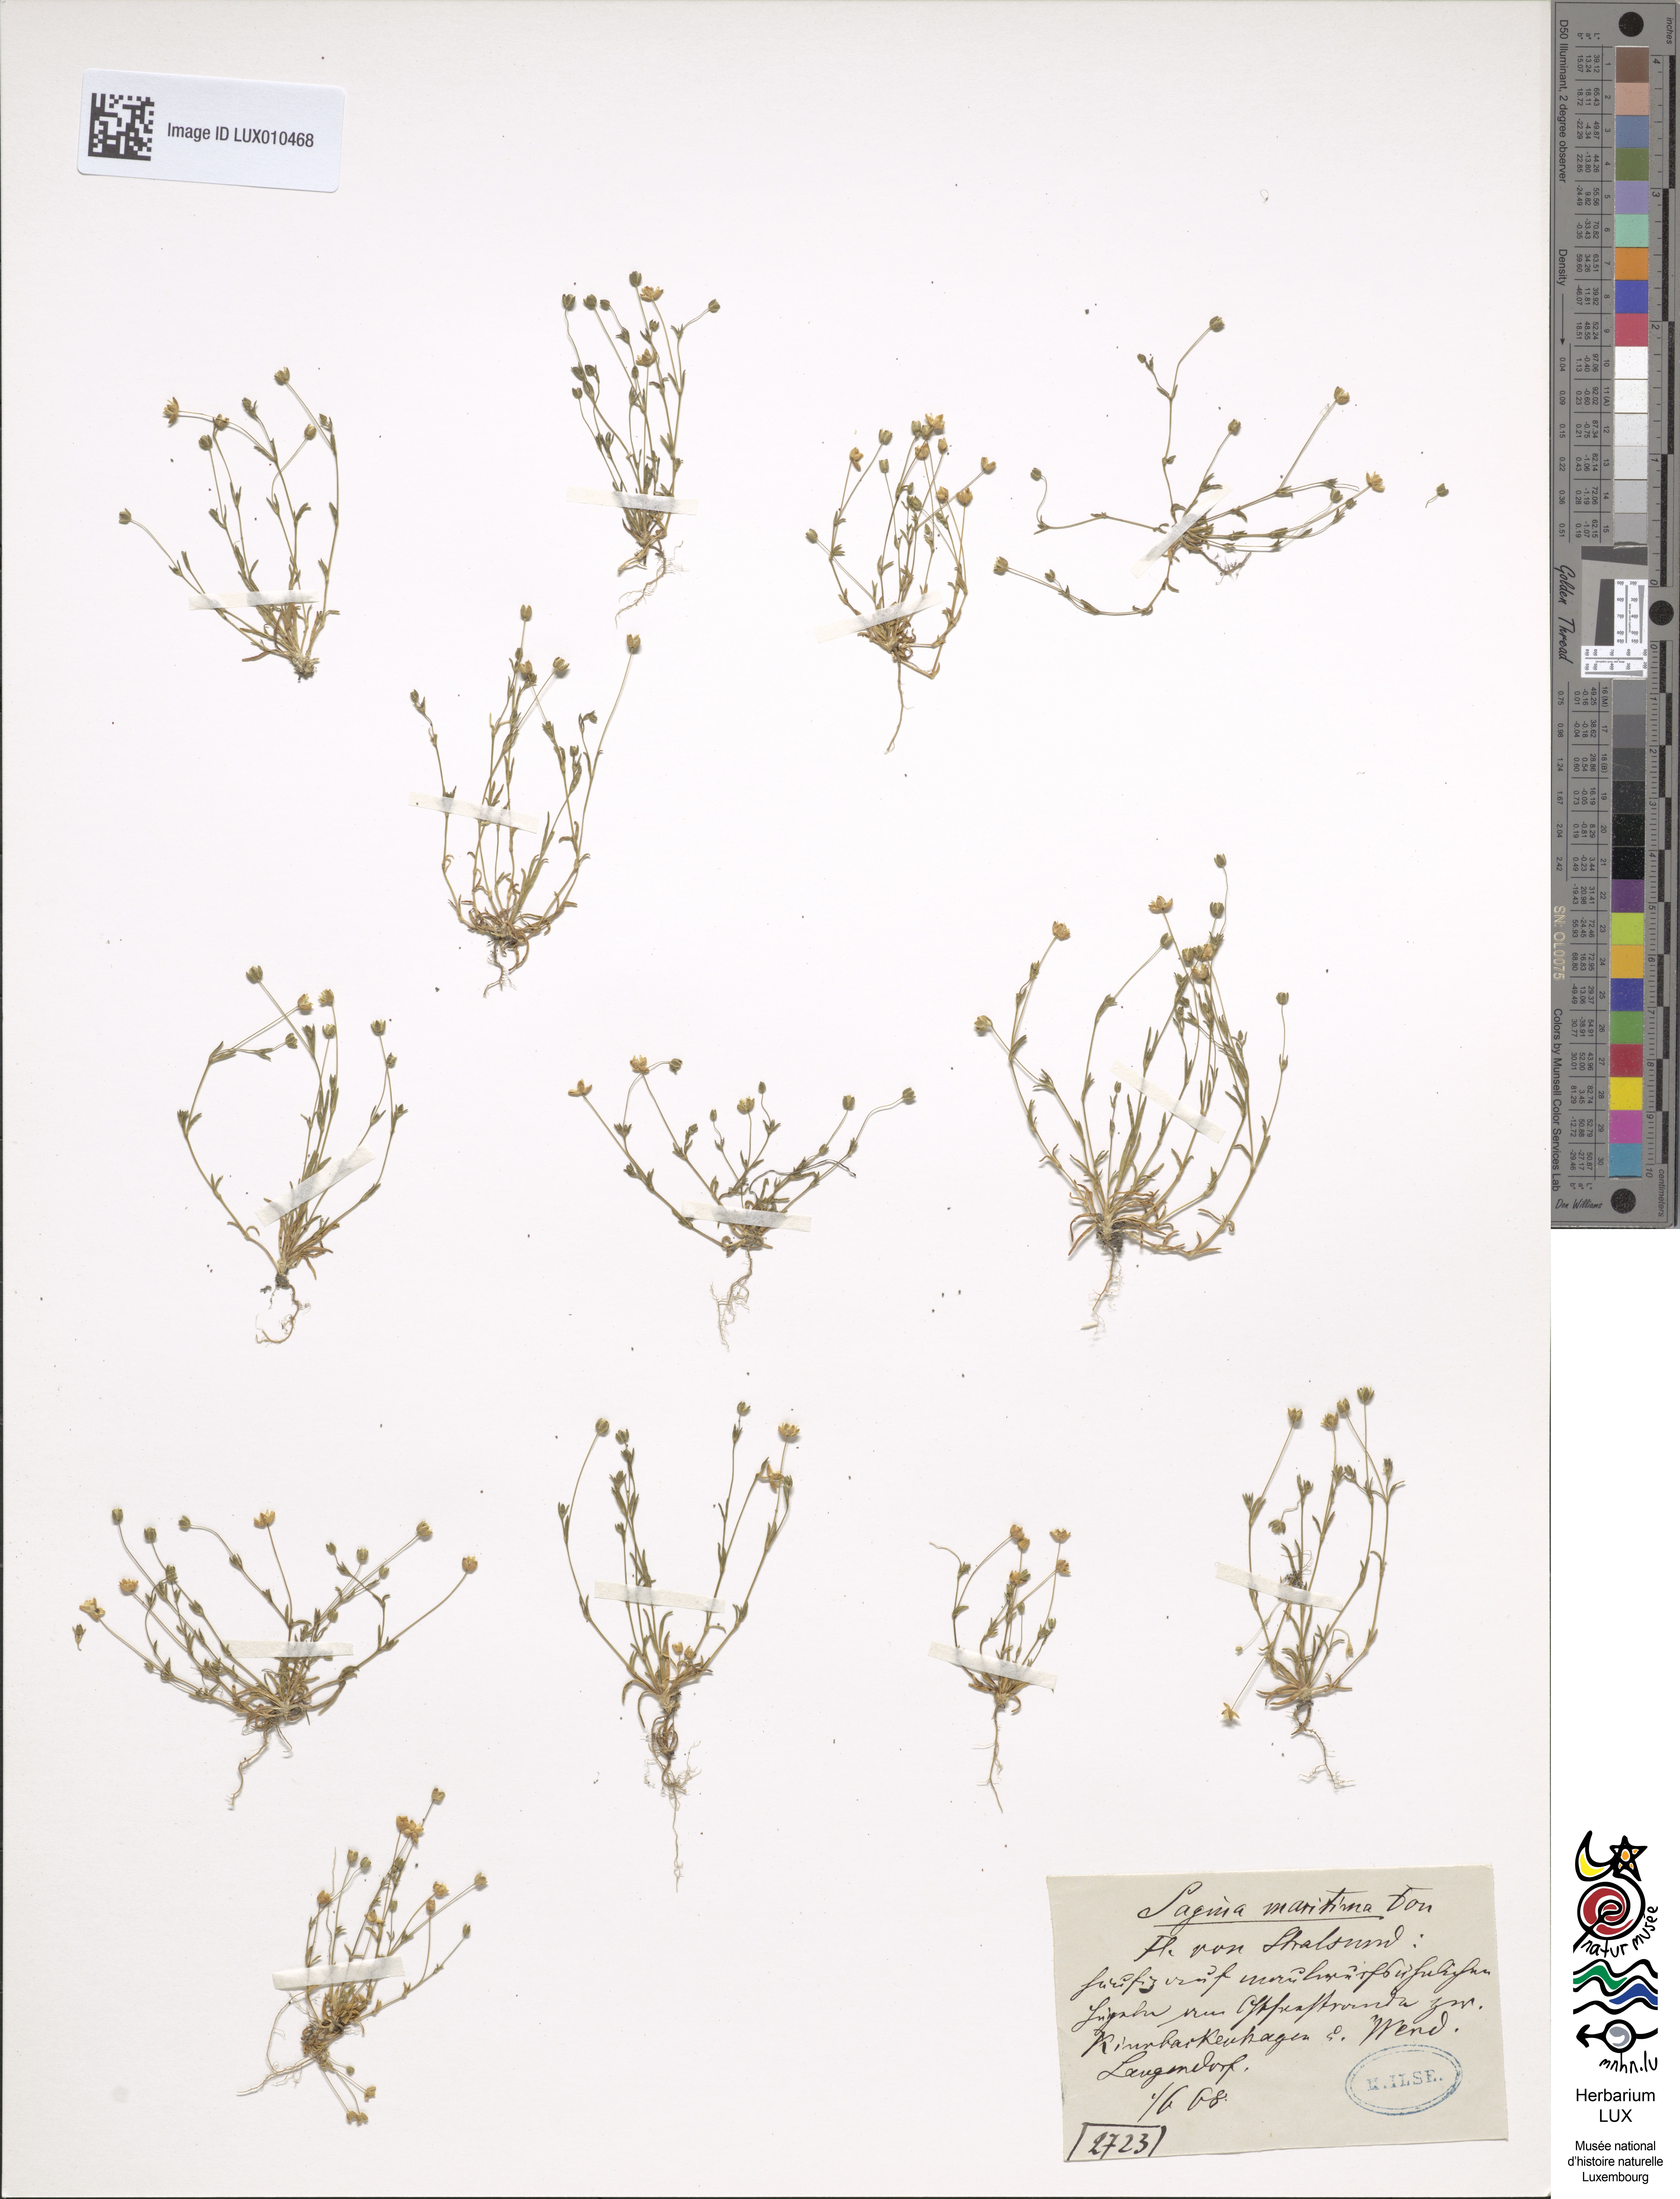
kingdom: Plantae
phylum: Tracheophyta
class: Magnoliopsida
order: Caryophyllales
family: Caryophyllaceae
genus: Sagina
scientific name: Sagina maritima
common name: Sea pearlwort
